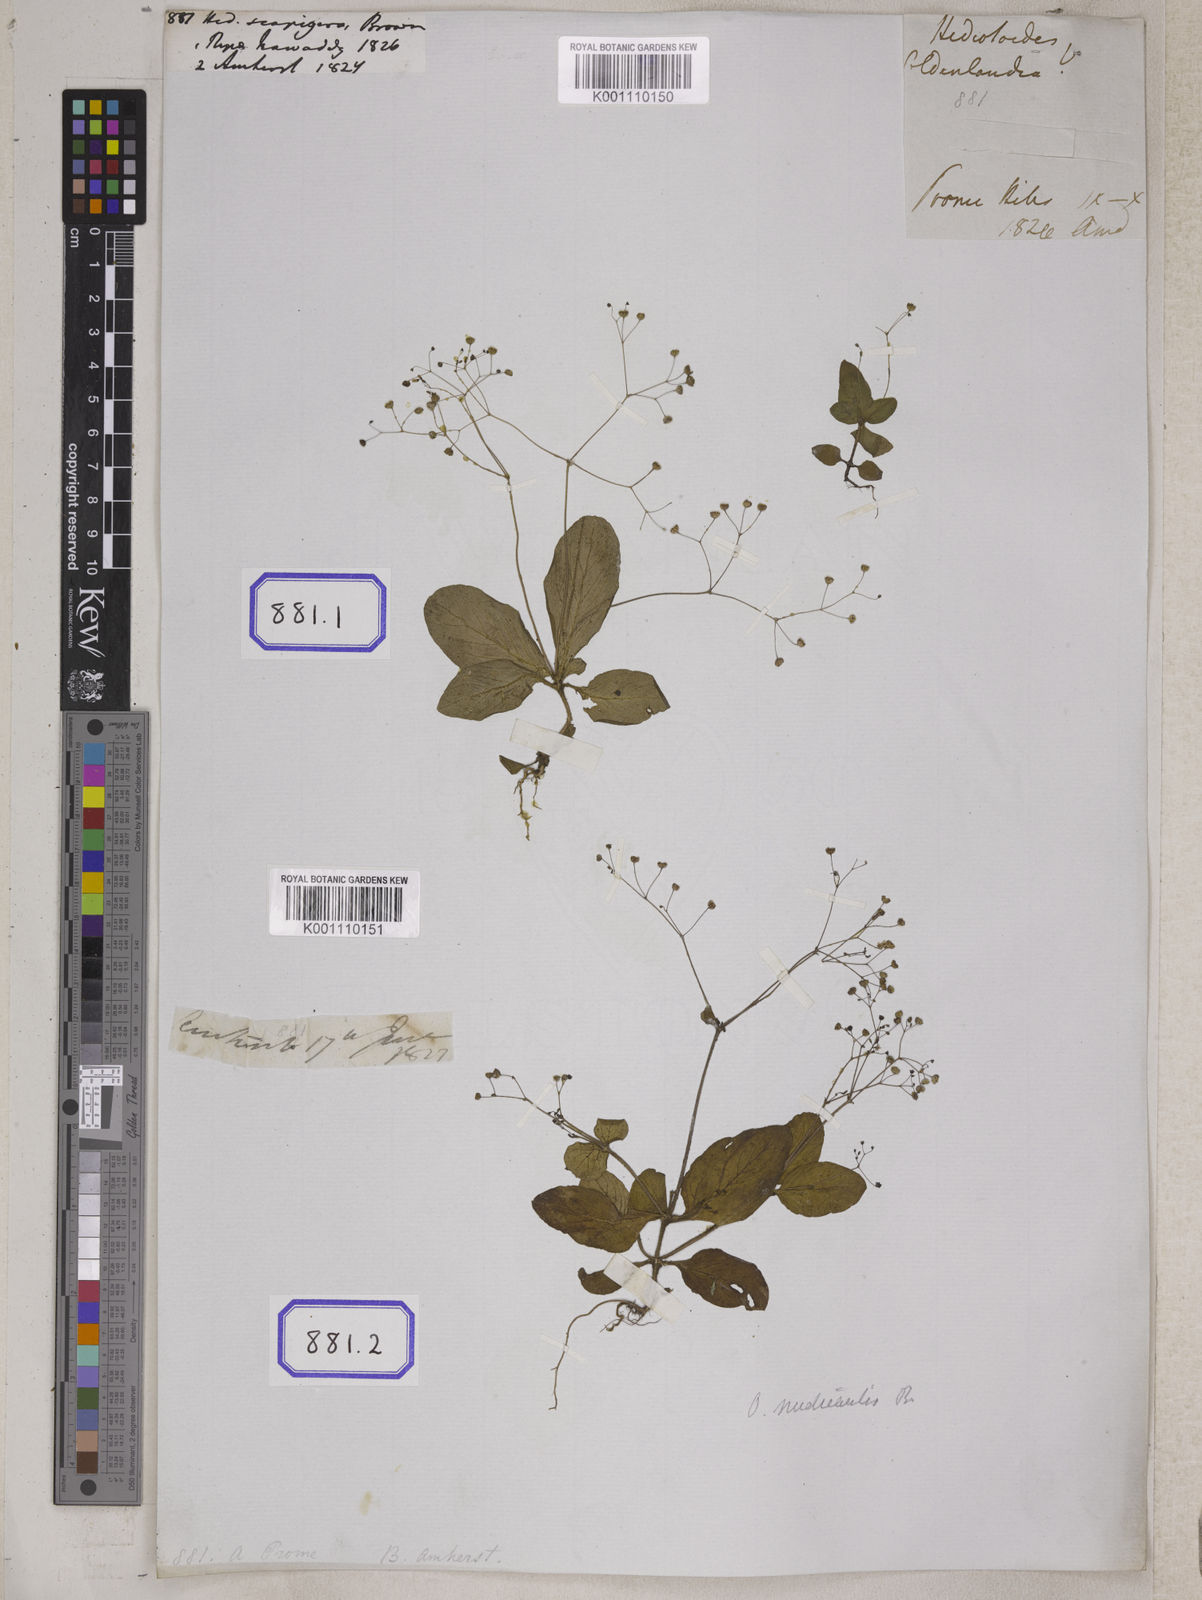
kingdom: Plantae
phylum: Tracheophyta
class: Magnoliopsida
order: Gentianales
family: Rubiaceae
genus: Hedyotis
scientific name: Hedyotis
